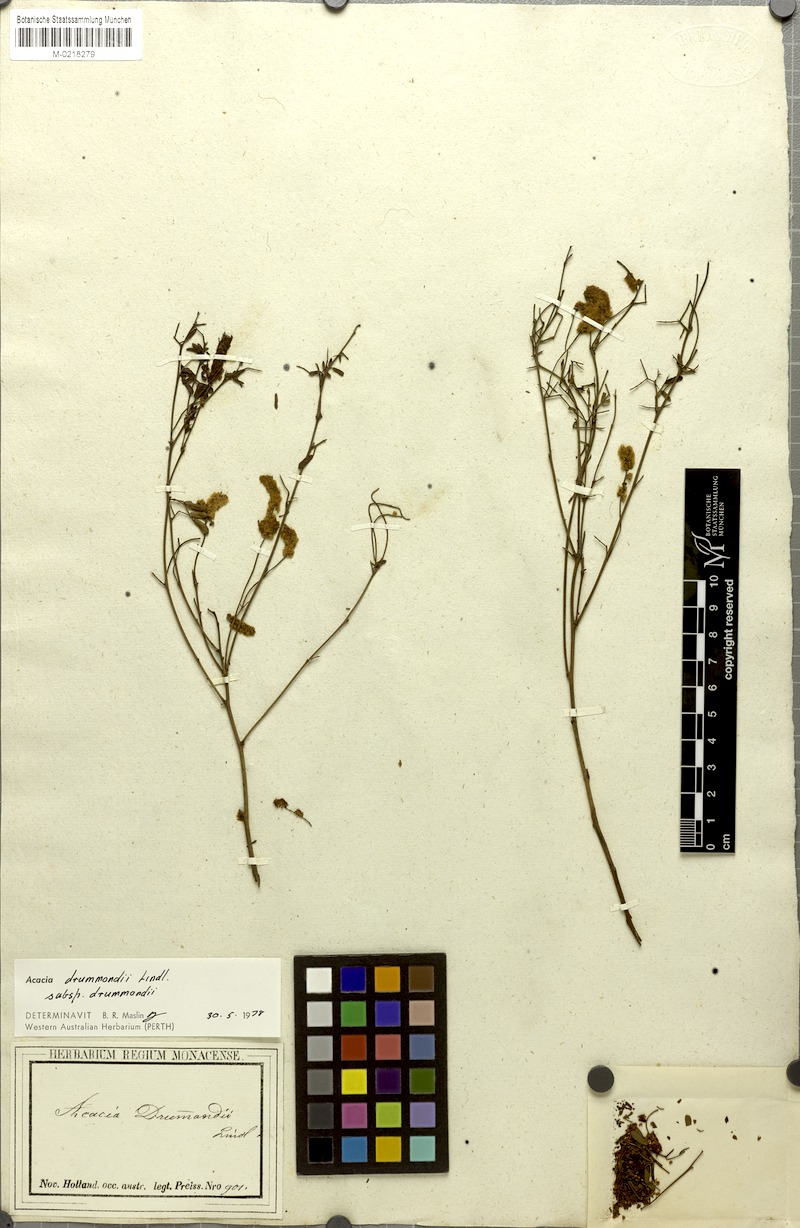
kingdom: Plantae
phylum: Tracheophyta
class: Magnoliopsida
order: Fabales
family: Fabaceae
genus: Acacia
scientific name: Acacia drummondii
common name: Drummond's wattle
